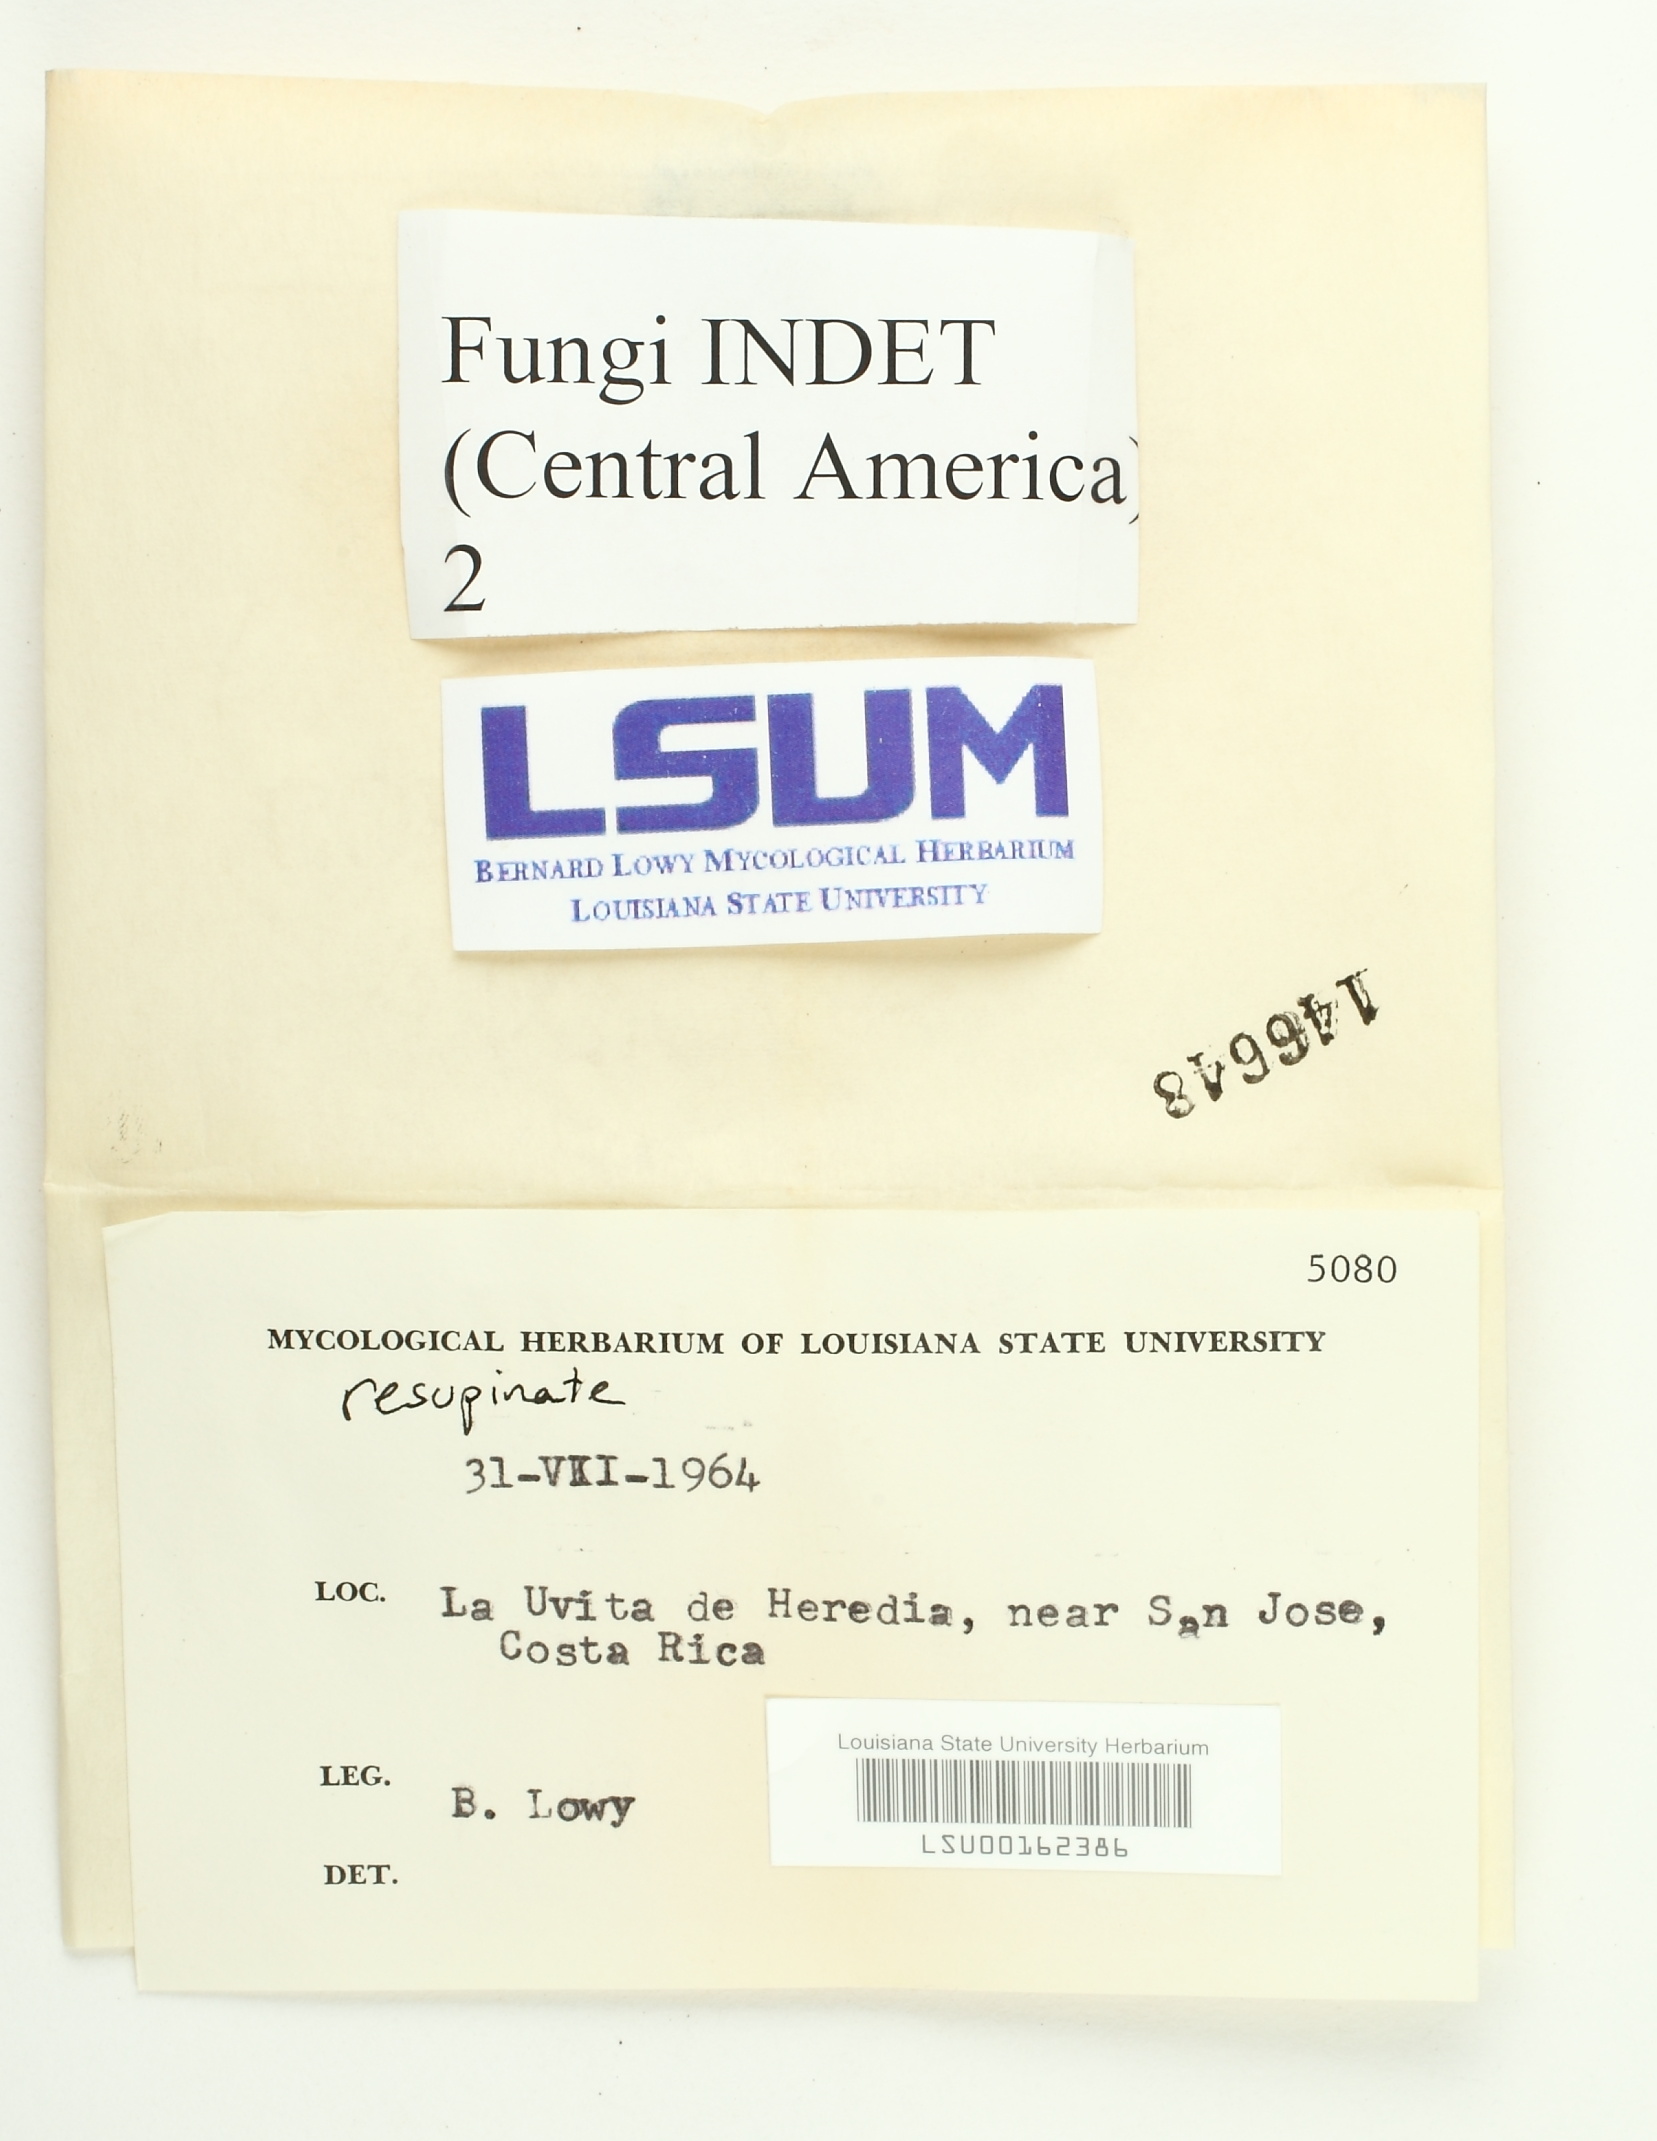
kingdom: Fungi
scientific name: Fungi
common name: Fungi
